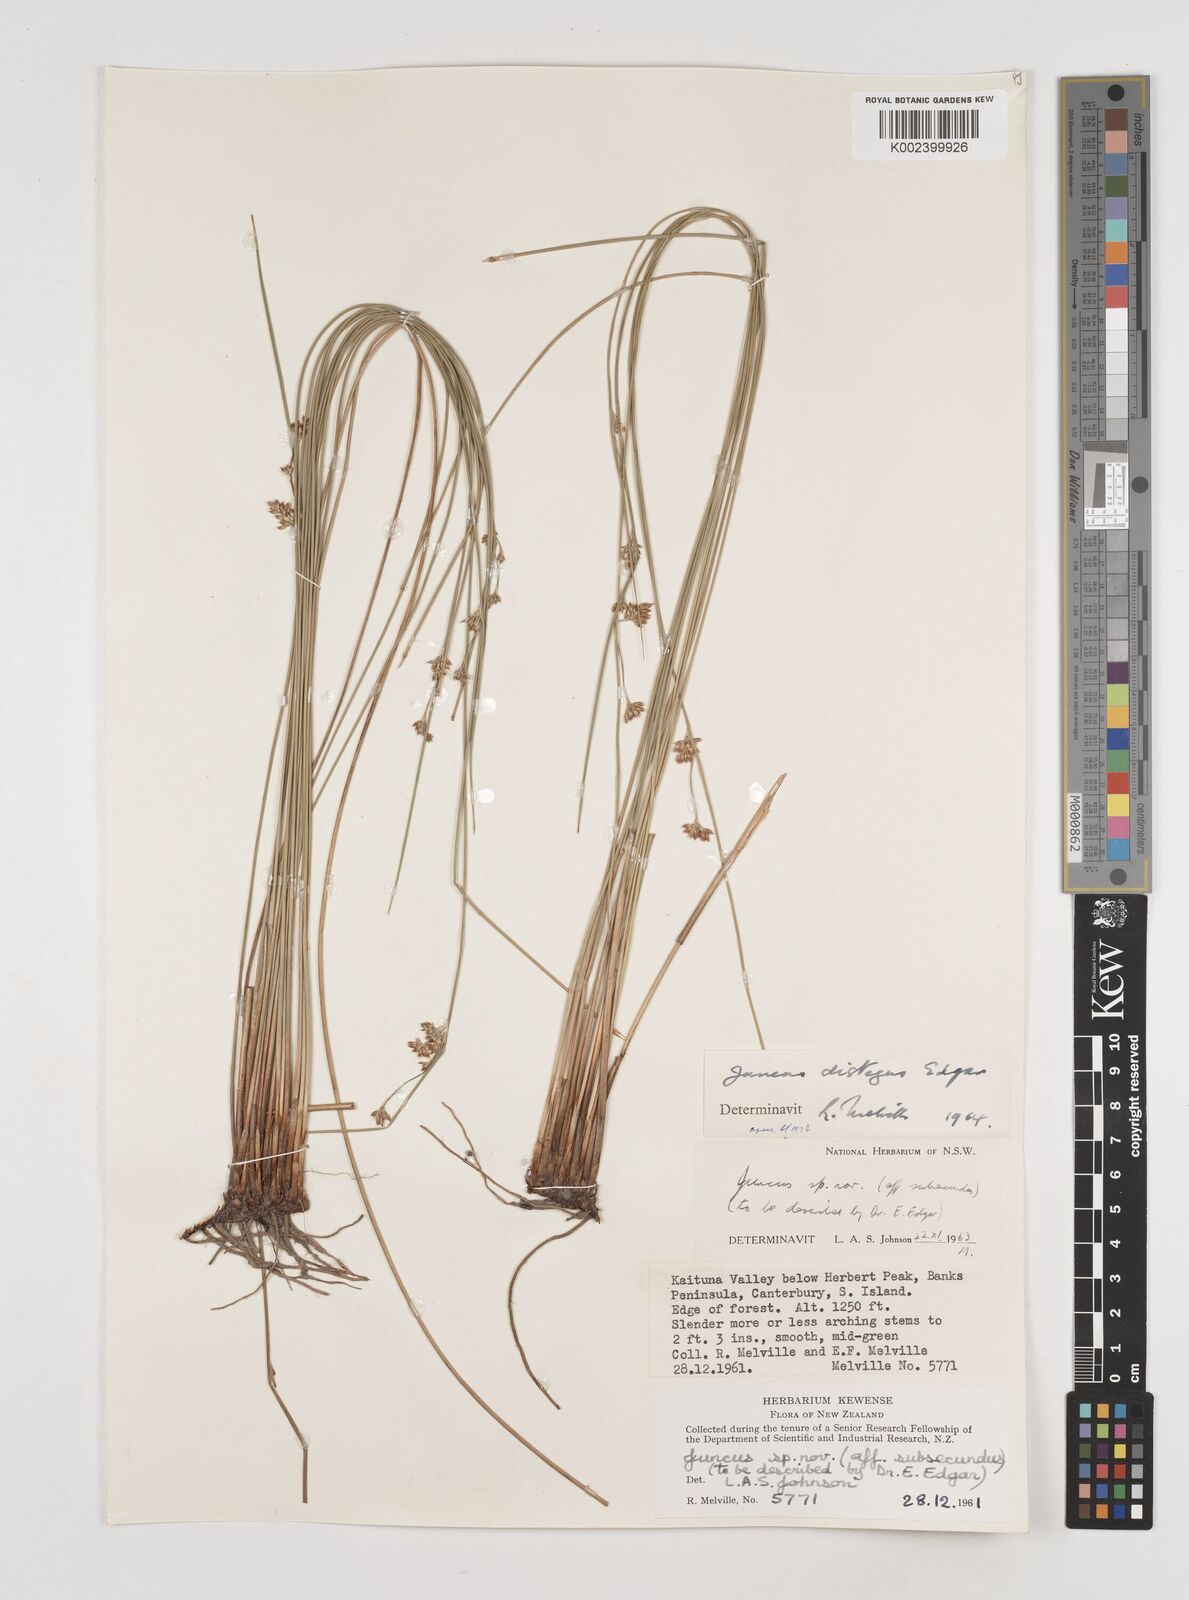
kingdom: Plantae
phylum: Tracheophyta
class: Liliopsida
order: Poales
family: Juncaceae
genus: Juncus
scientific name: Juncus distegus
